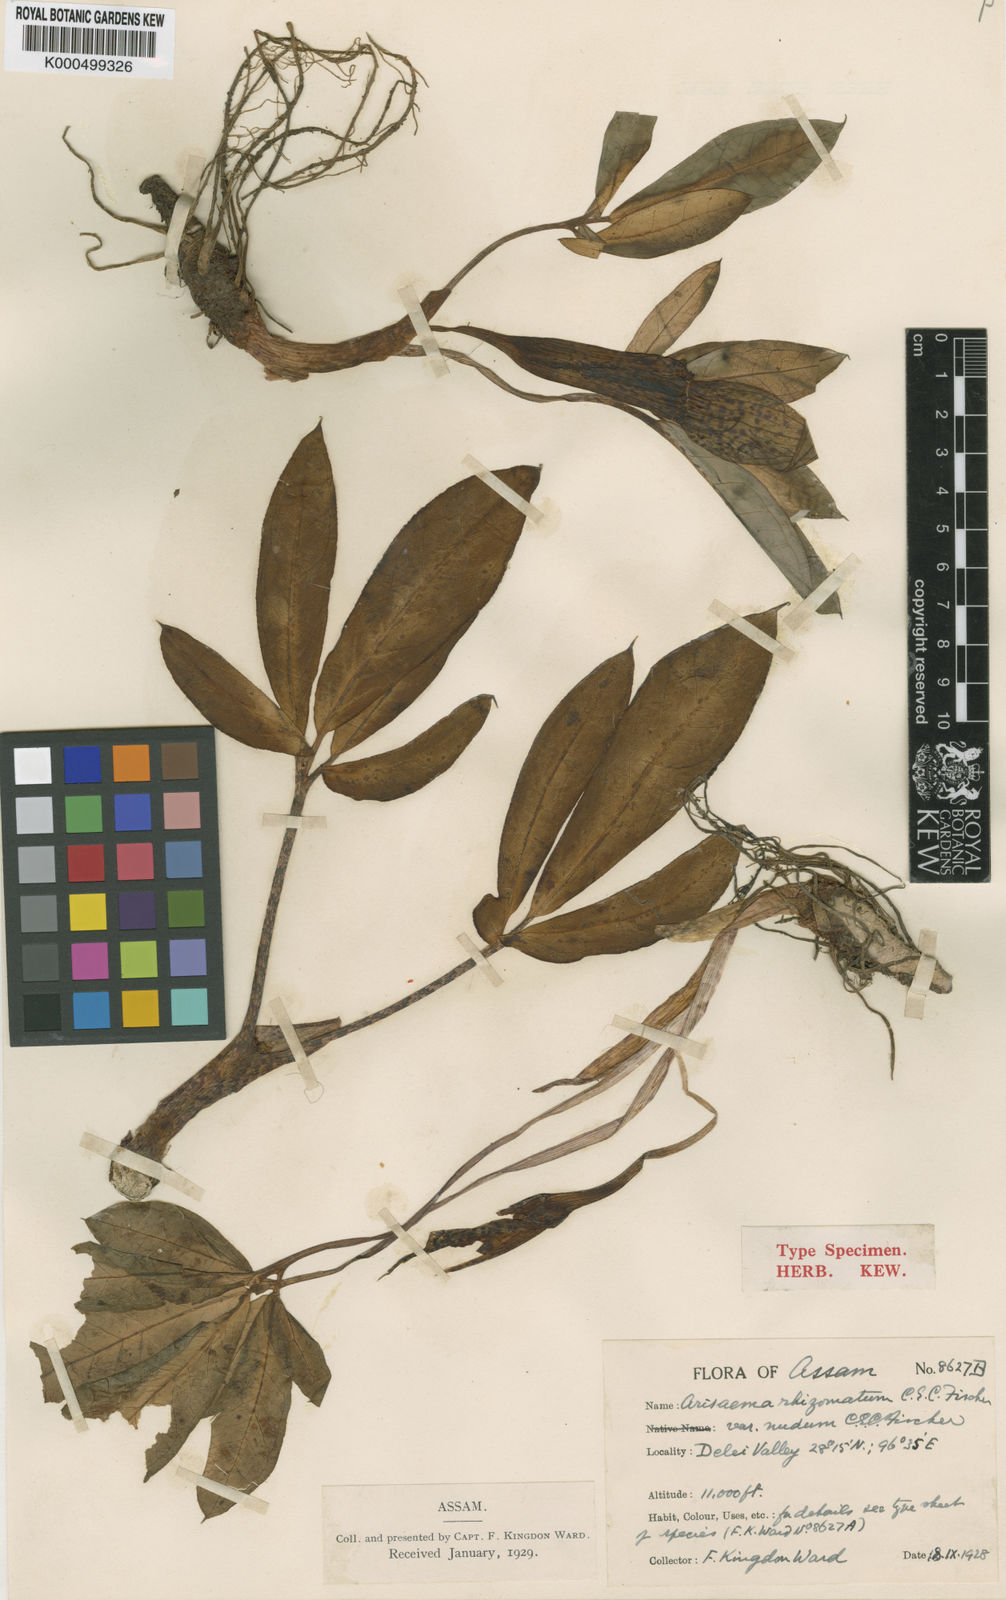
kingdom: Plantae
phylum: Tracheophyta
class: Liliopsida
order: Alismatales
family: Araceae
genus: Arisaema
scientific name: Arisaema decipiens
